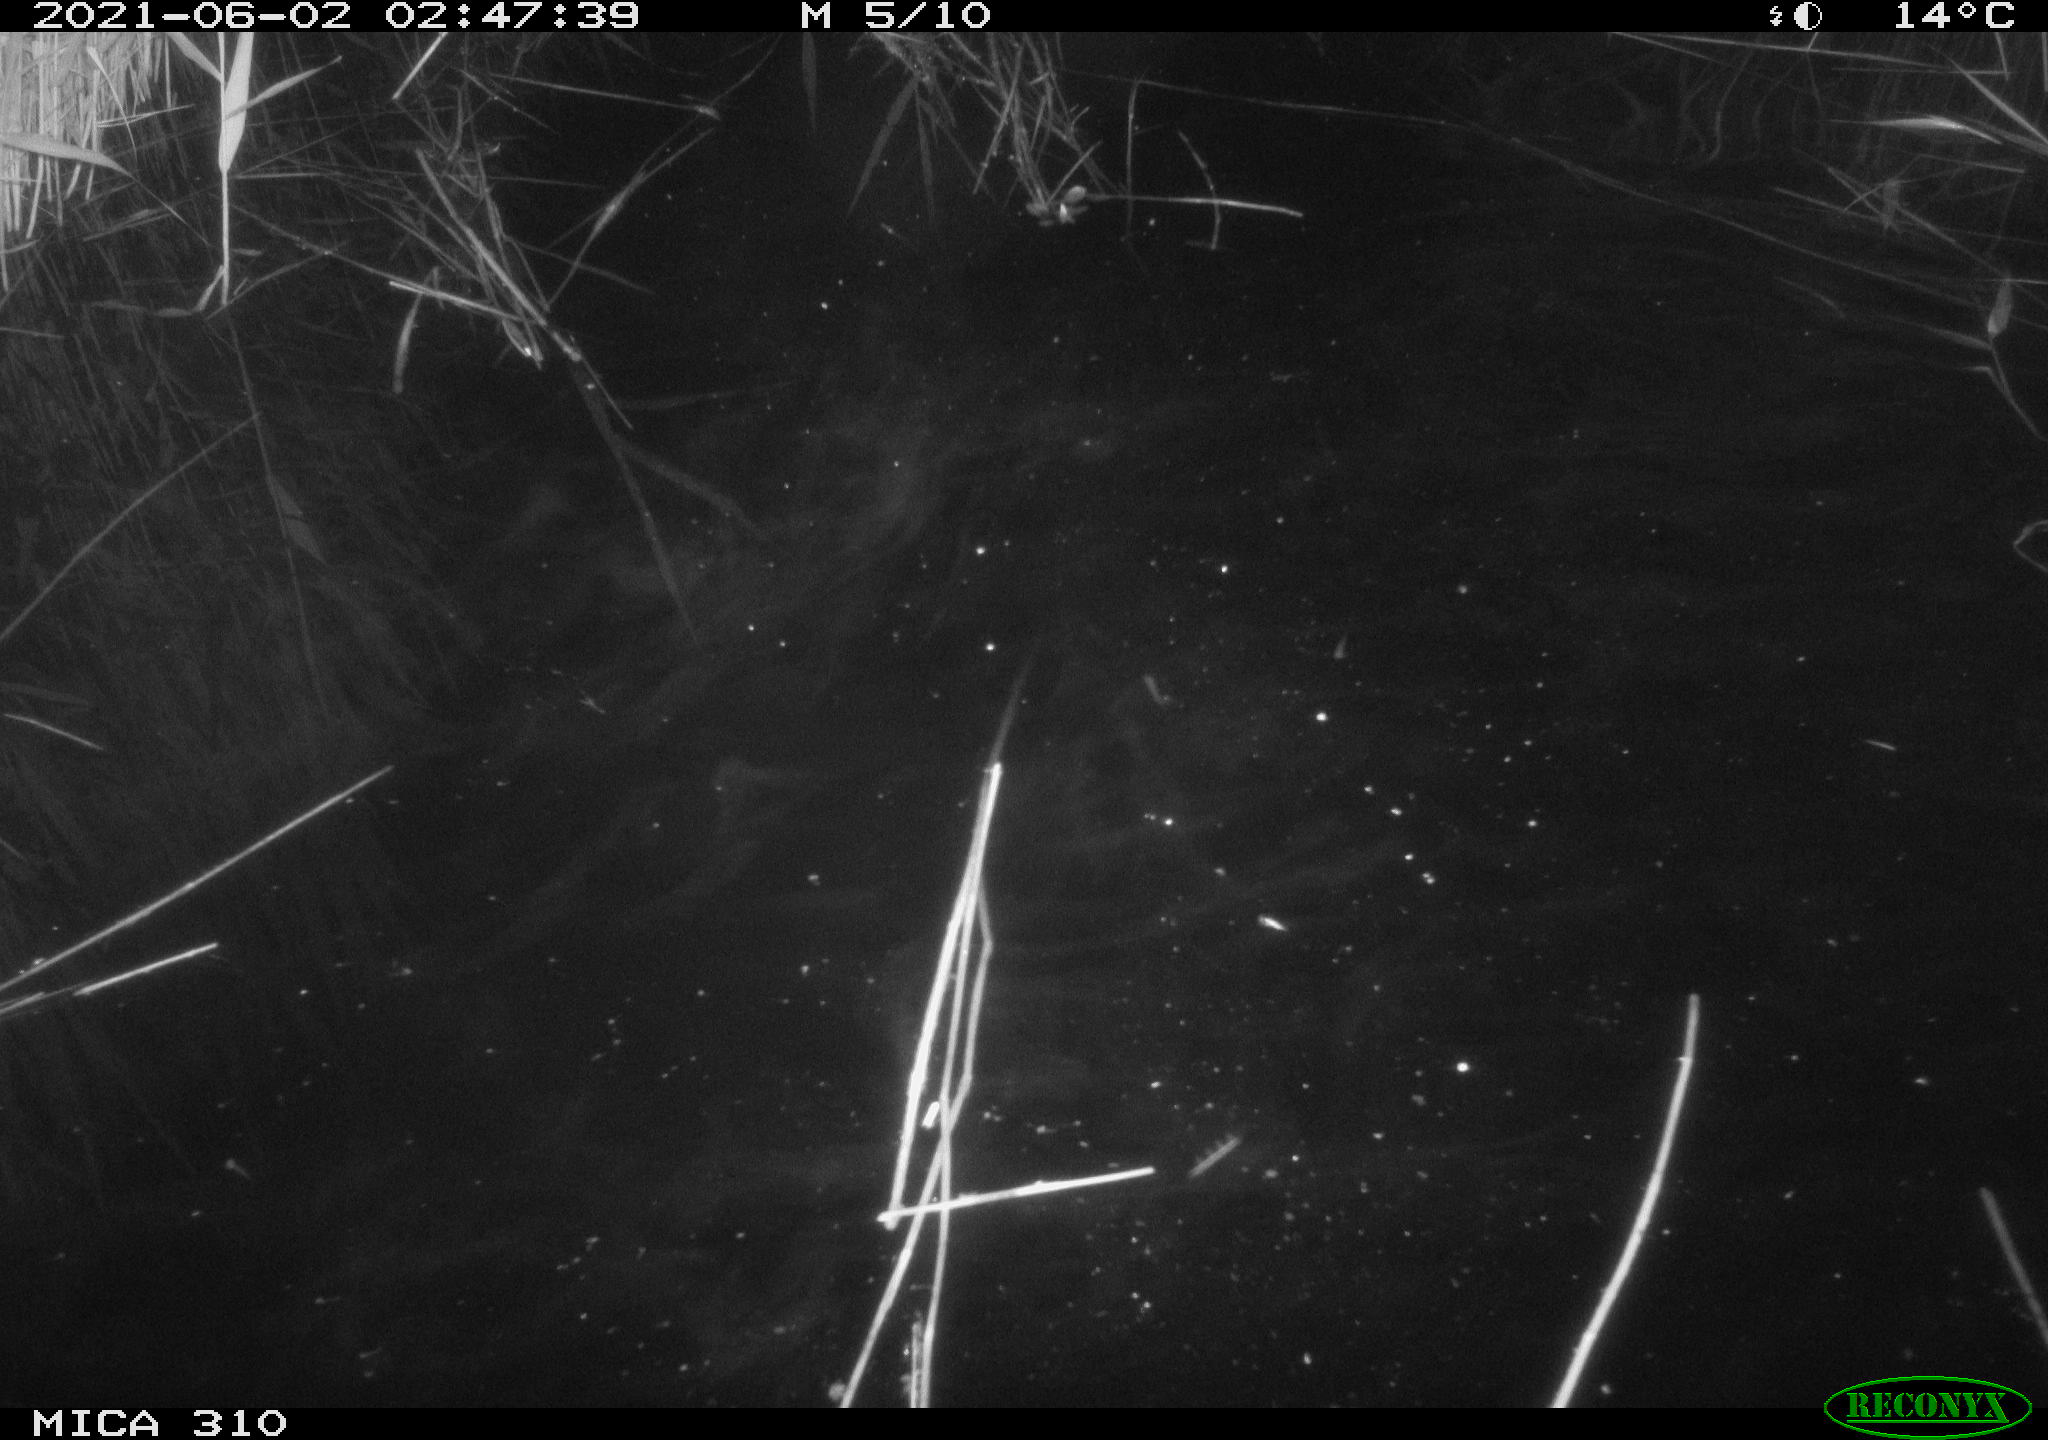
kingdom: Animalia
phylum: Chordata
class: Mammalia
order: Rodentia
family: Cricetidae
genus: Ondatra
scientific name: Ondatra zibethicus
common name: Muskrat
